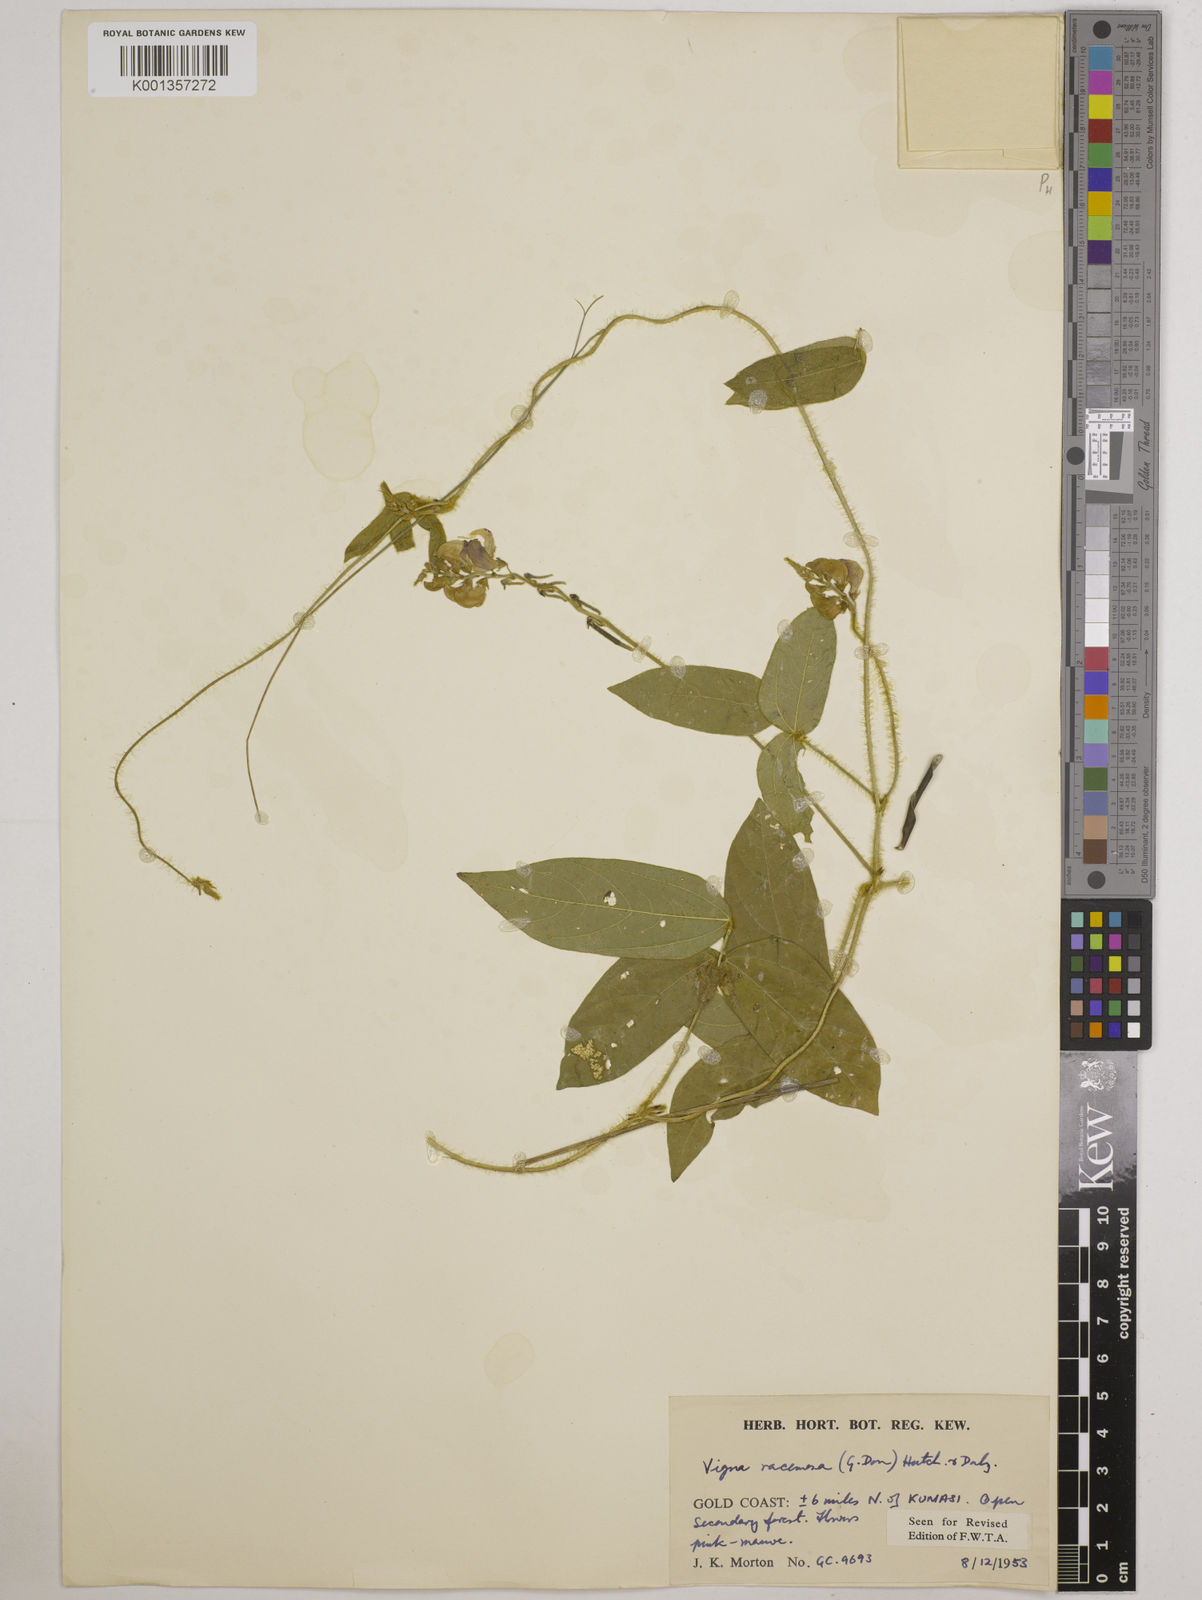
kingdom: Plantae
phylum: Tracheophyta
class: Magnoliopsida
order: Fabales
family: Fabaceae
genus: Vigna
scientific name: Vigna racemosa
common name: Beans not eaten
